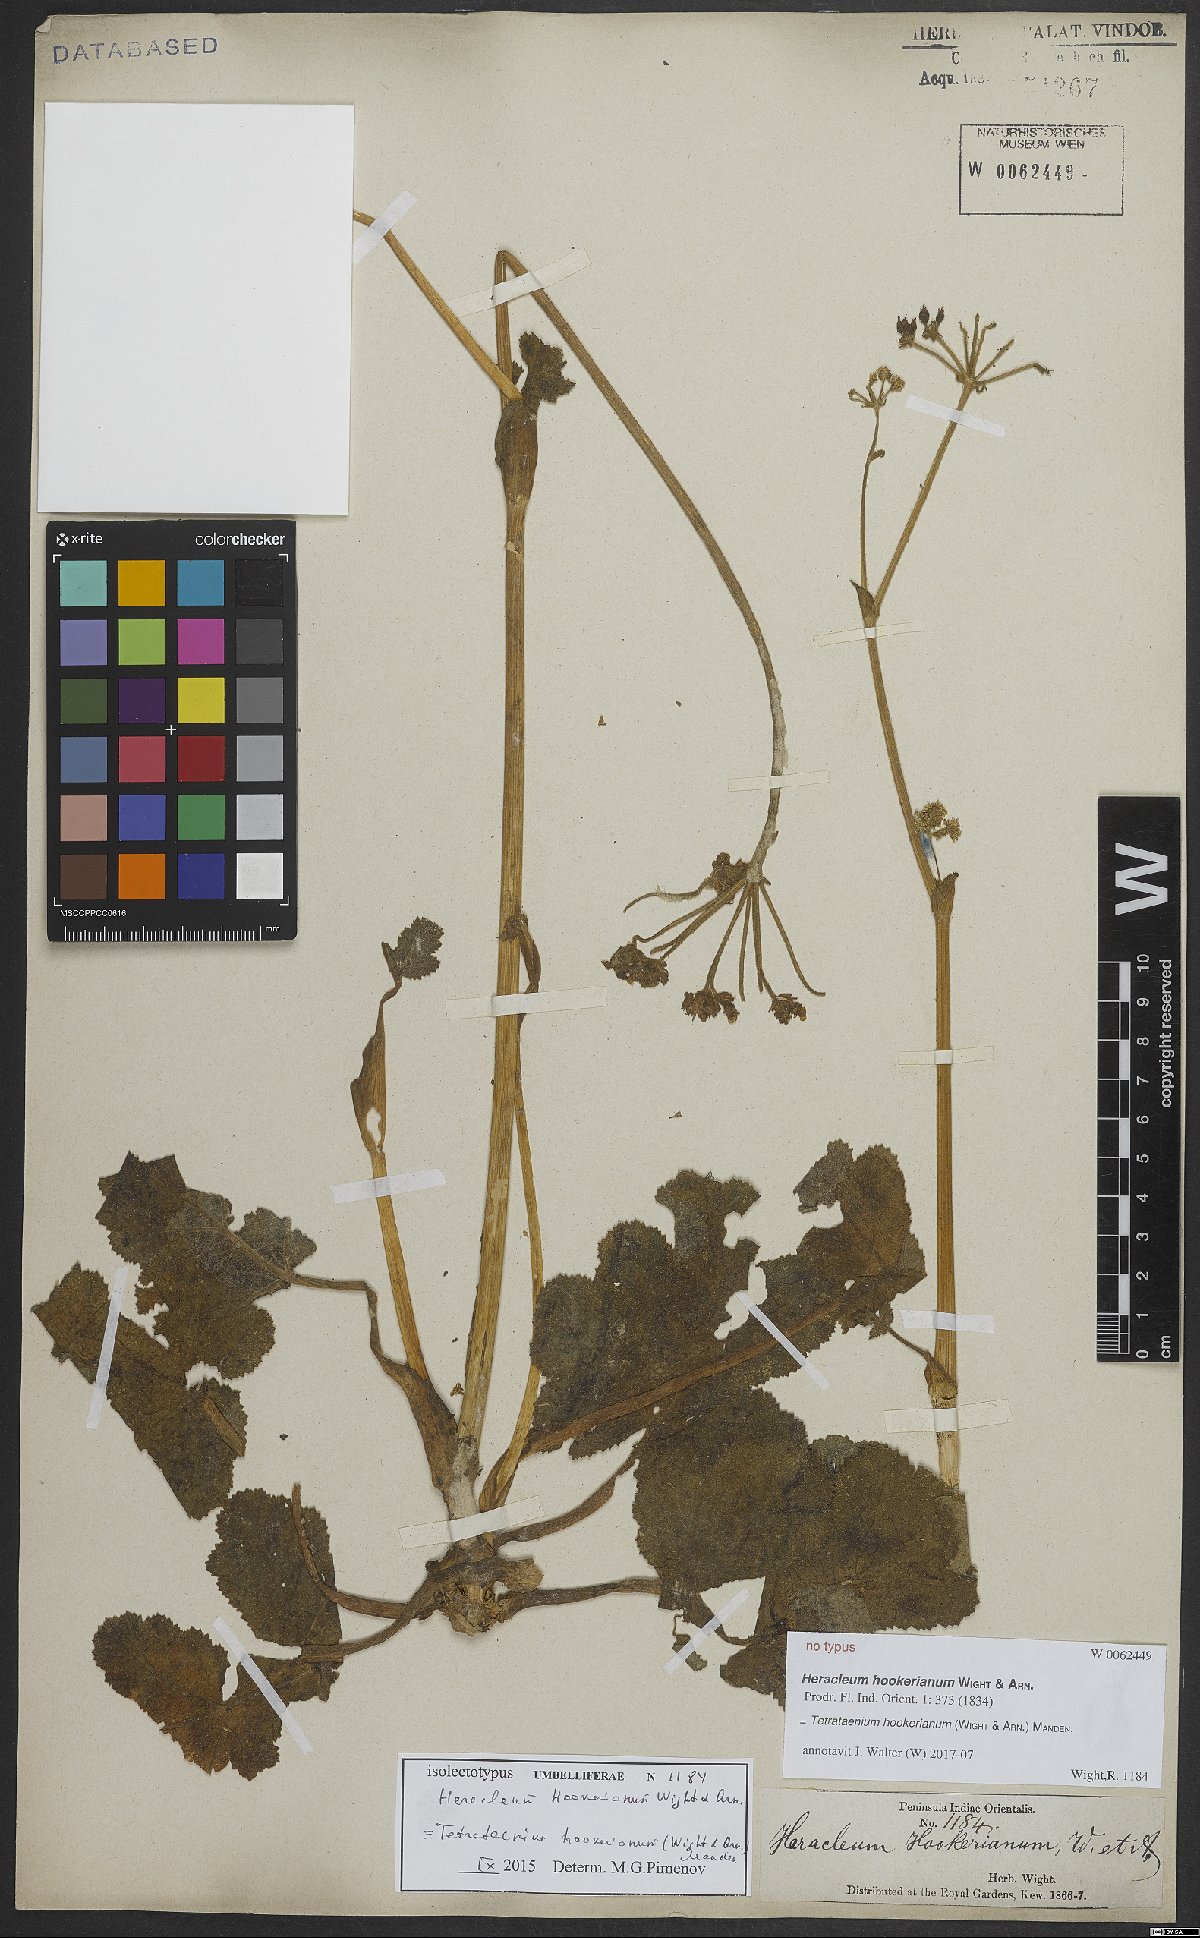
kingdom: Plantae
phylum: Tracheophyta
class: Magnoliopsida
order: Apiales
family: Apiaceae
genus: Tetrataenium
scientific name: Tetrataenium hookerianum
